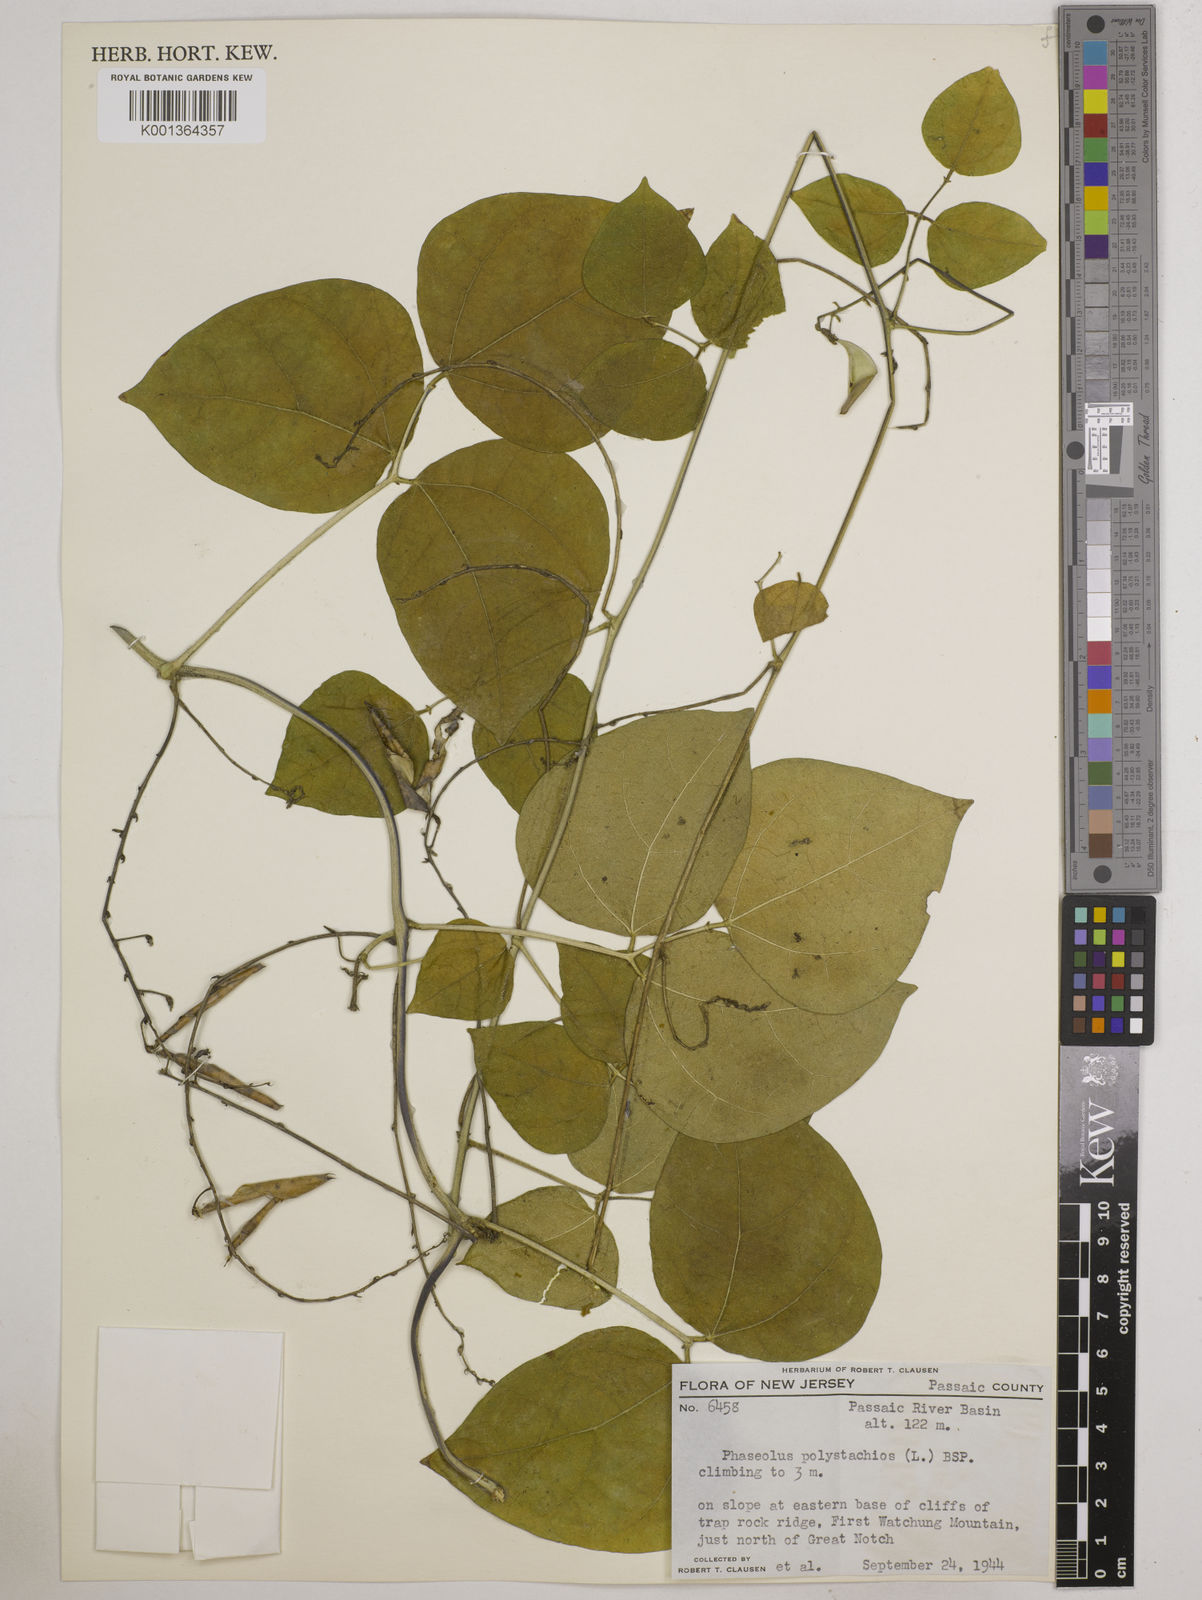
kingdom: Plantae
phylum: Tracheophyta
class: Magnoliopsida
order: Fabales
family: Fabaceae
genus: Phaseolus
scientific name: Phaseolus
